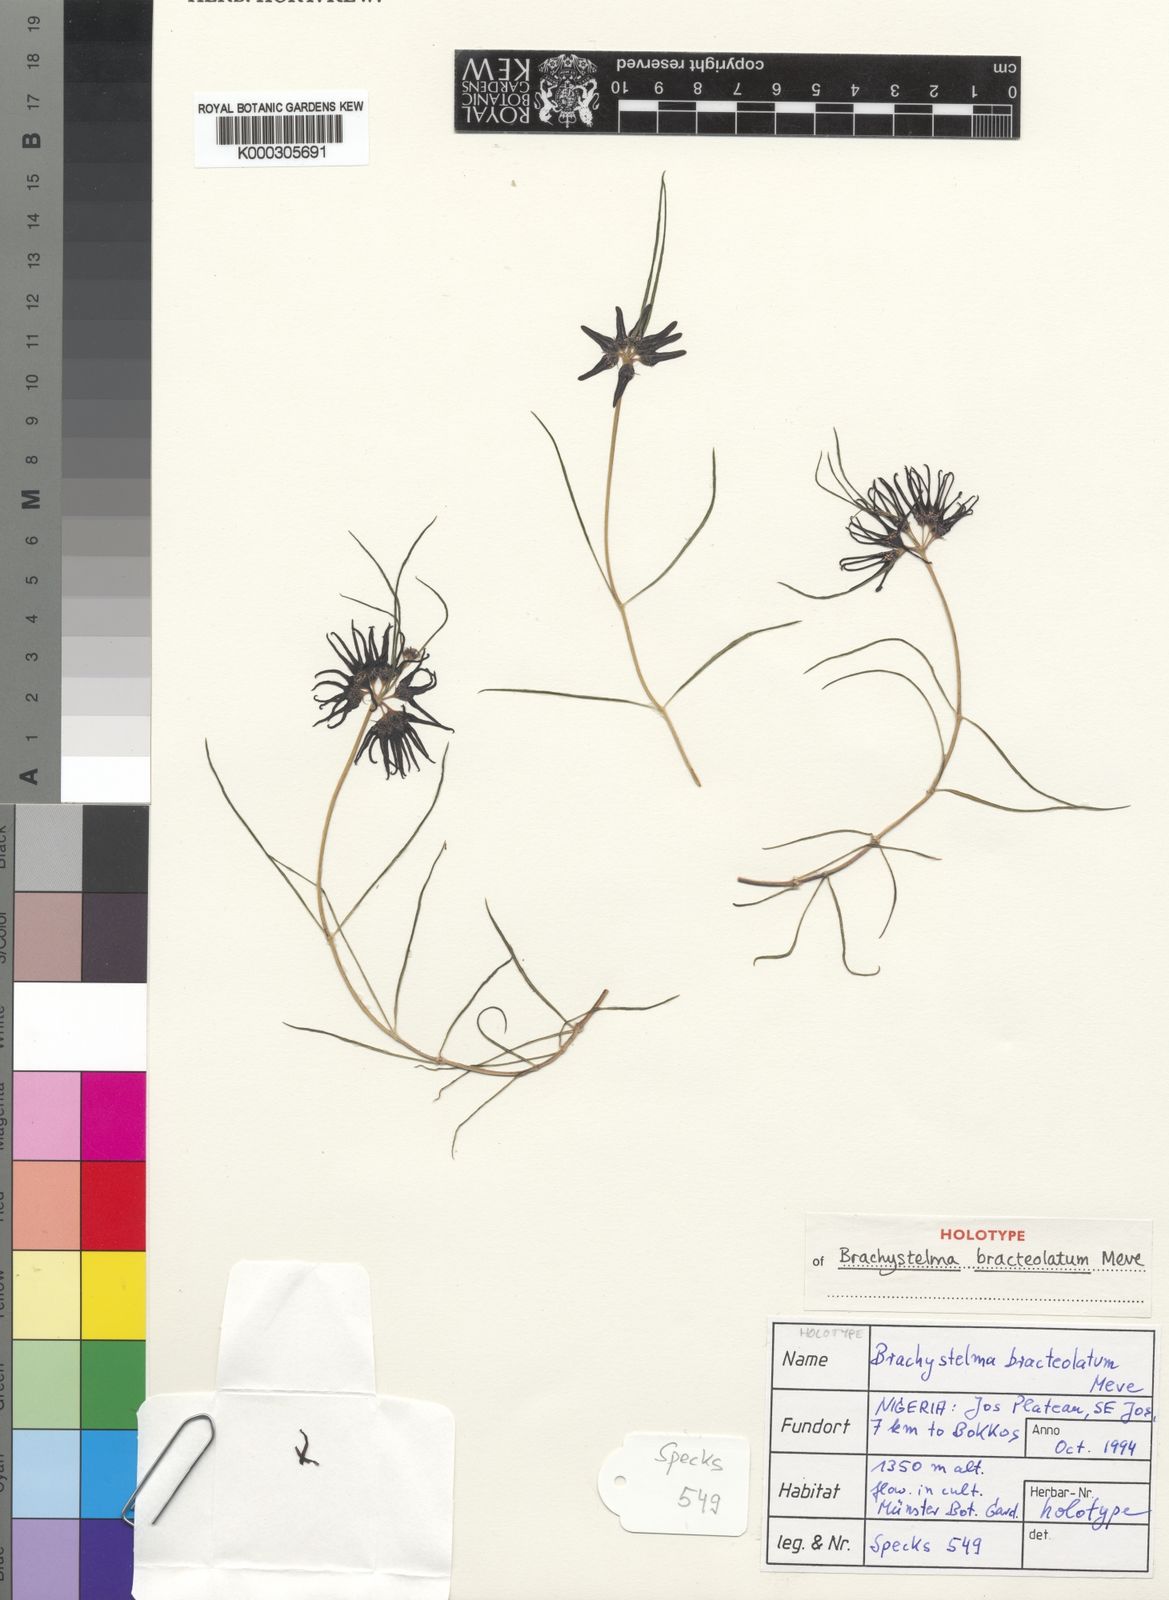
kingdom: Plantae
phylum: Tracheophyta
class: Magnoliopsida
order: Gentianales
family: Apocynaceae
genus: Ceropegia
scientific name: Ceropegia bracteolata
